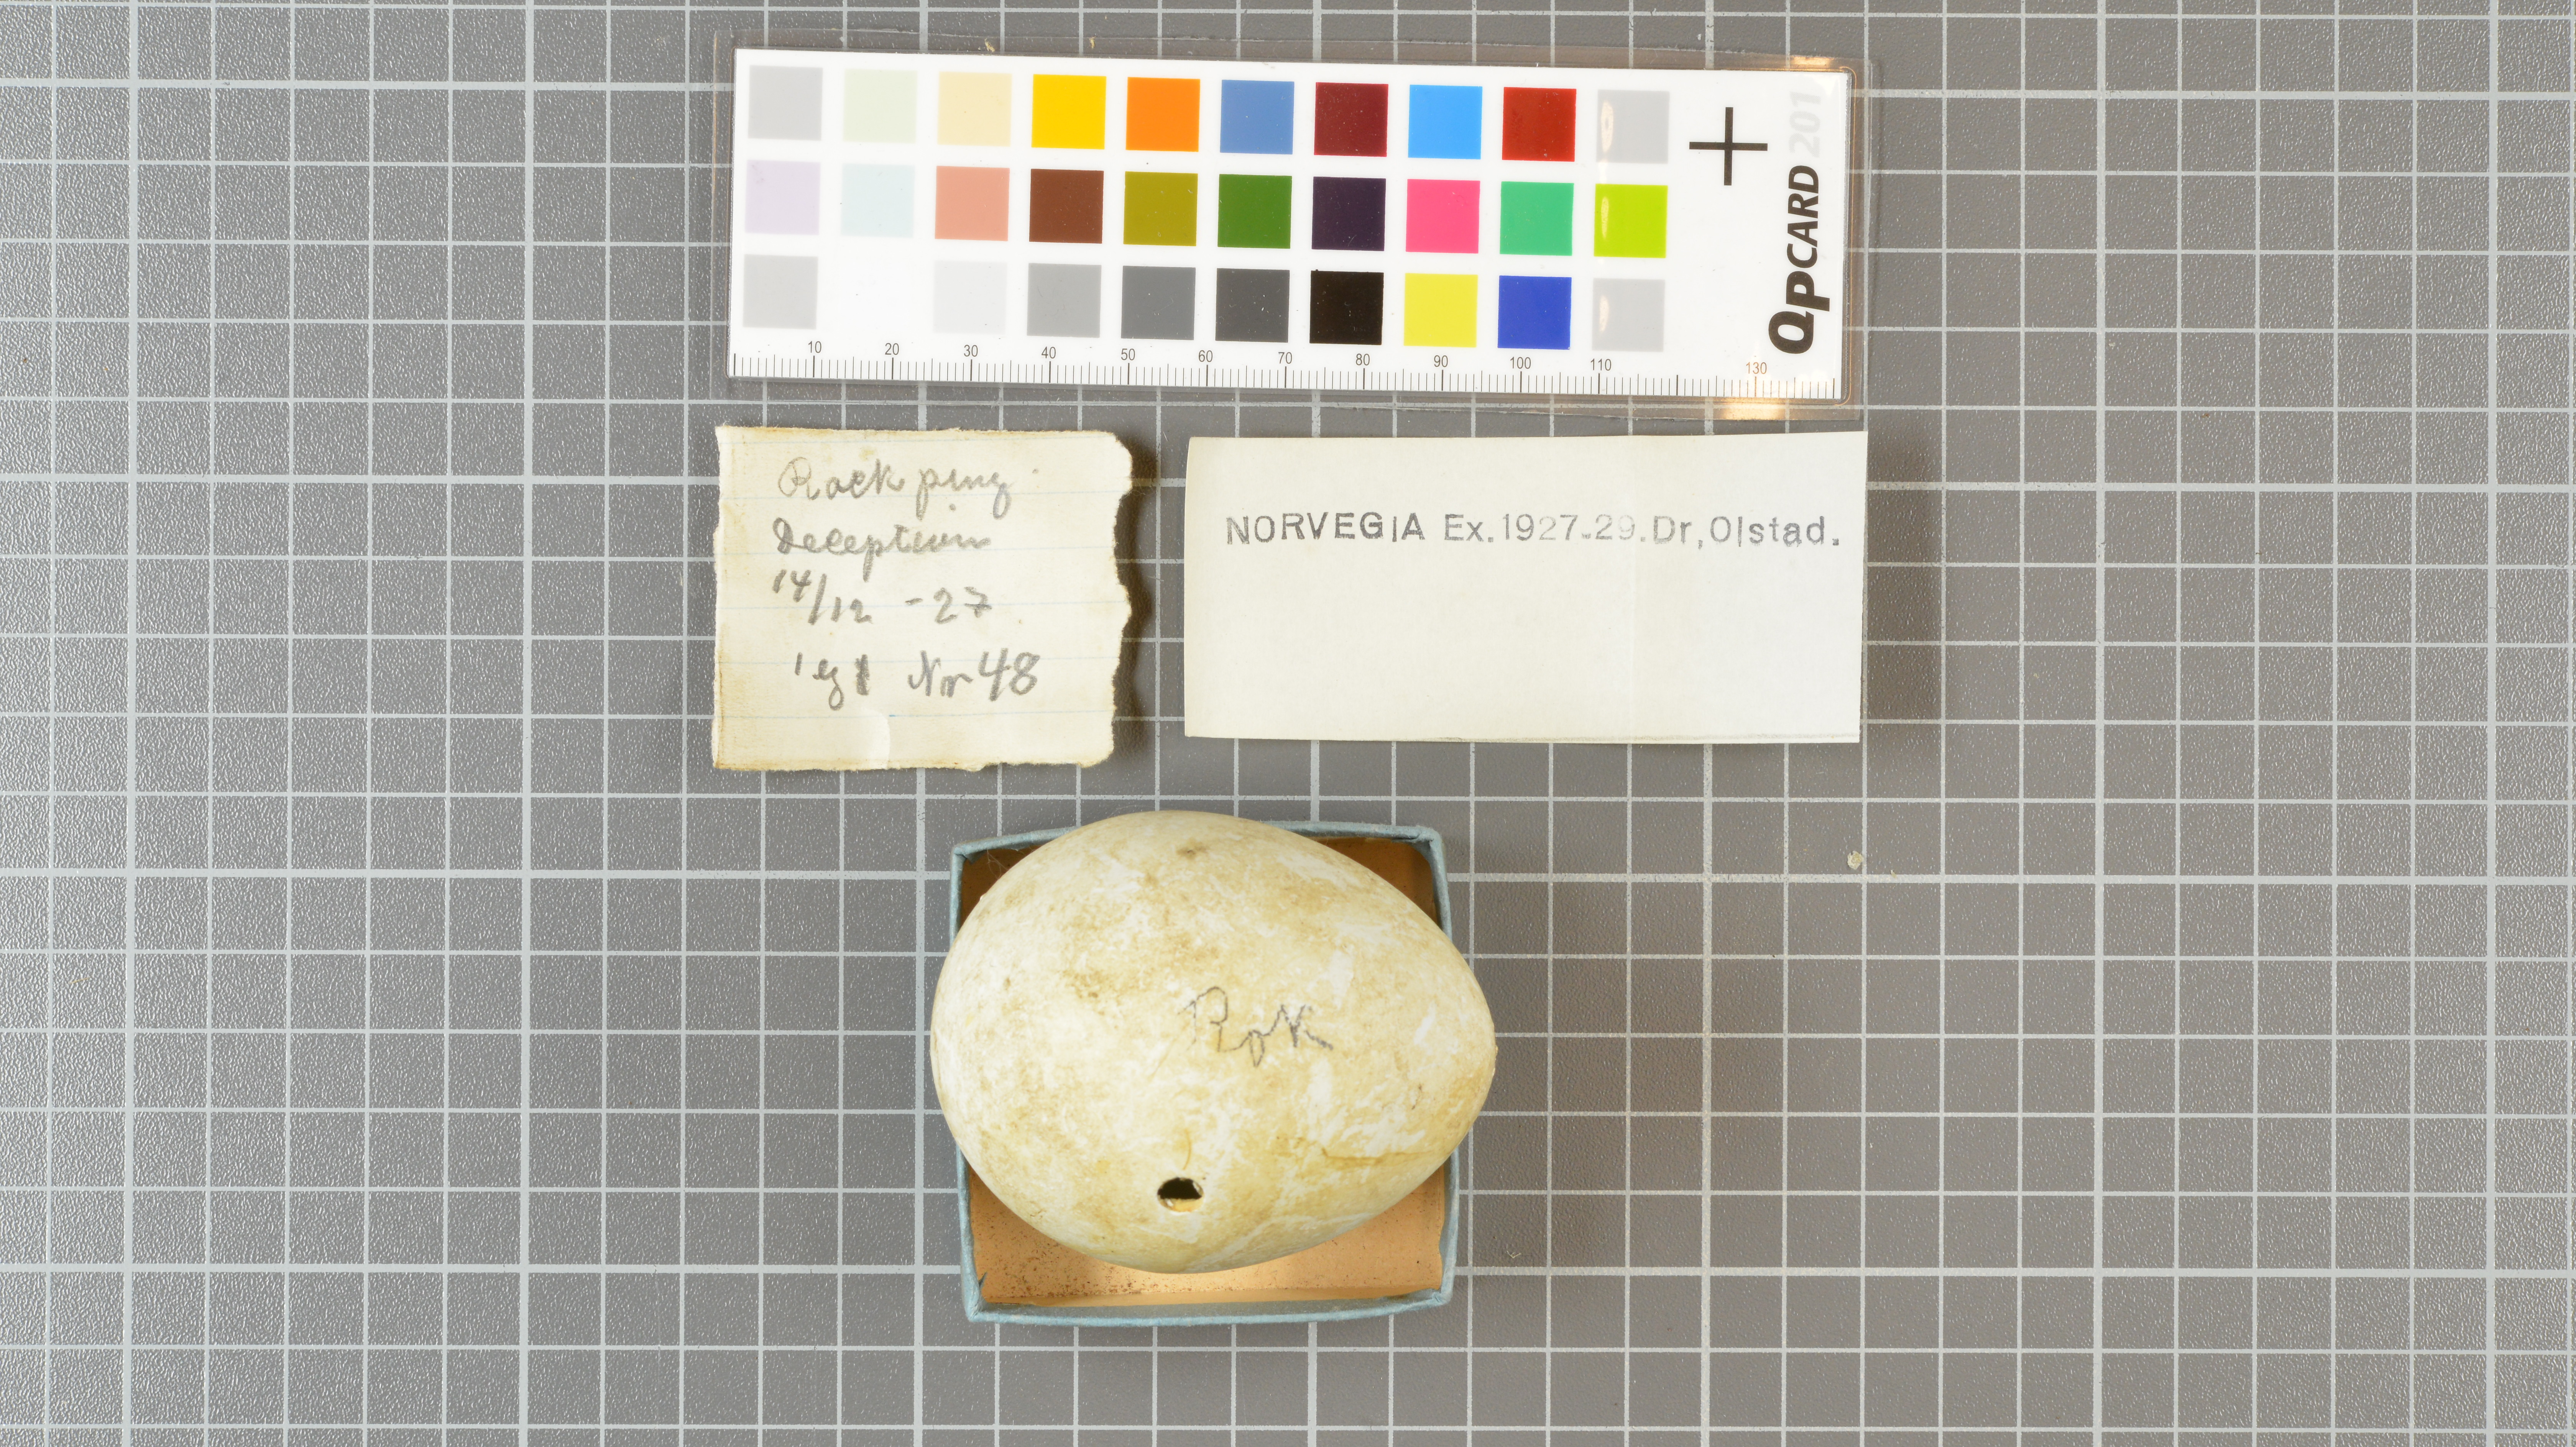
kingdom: Animalia
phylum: Chordata
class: Aves
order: Sphenisciformes
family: Spheniscidae
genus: Eudyptes
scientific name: Eudyptes chrysolophus
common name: Macaroni penguin
